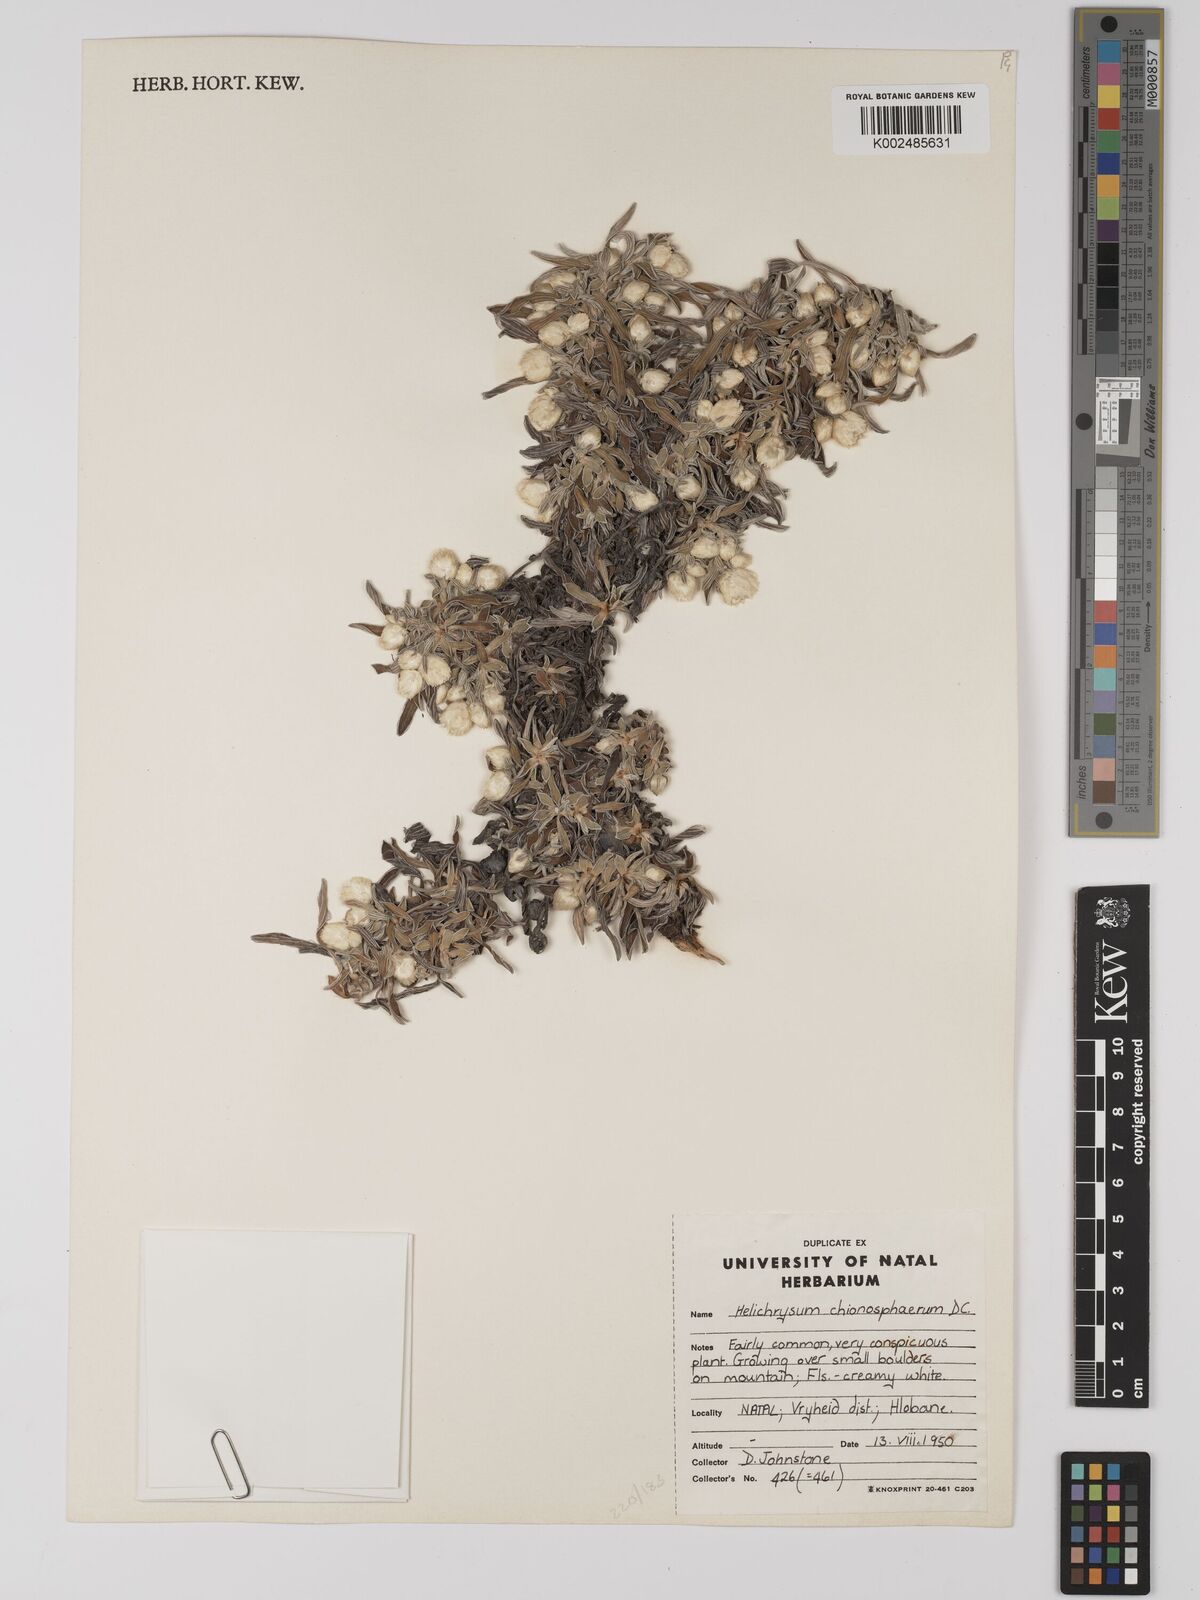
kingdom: Plantae
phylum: Tracheophyta
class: Magnoliopsida
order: Asterales
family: Asteraceae
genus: Helichrysum
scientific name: Helichrysum chionosphaerum
